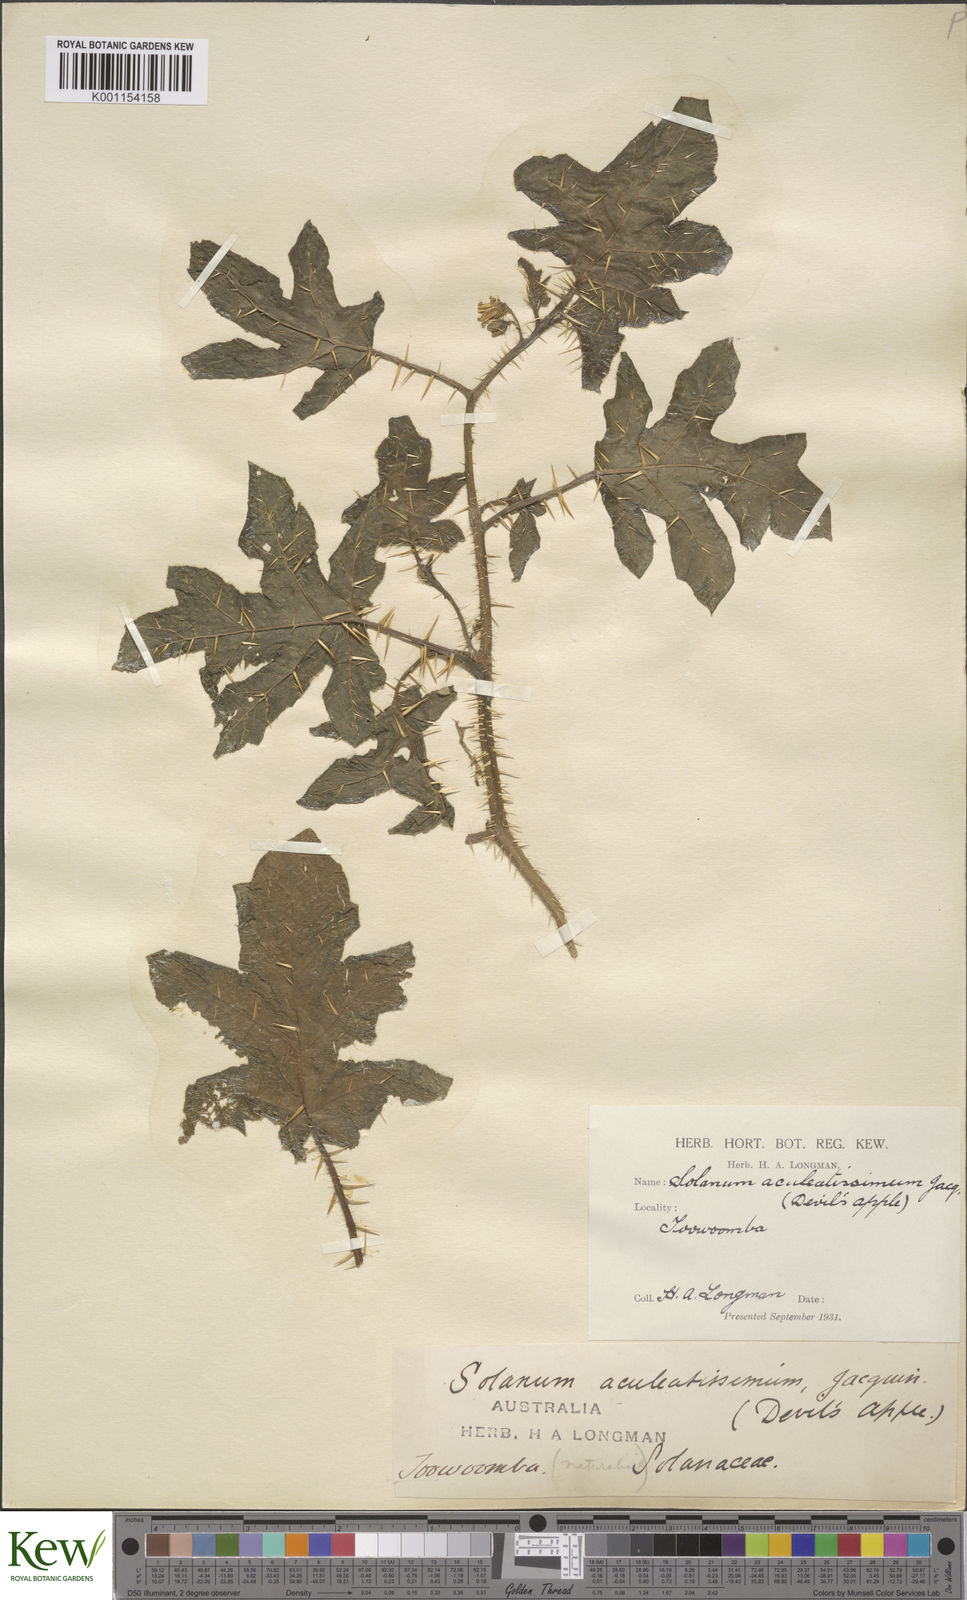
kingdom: Plantae
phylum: Tracheophyta
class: Magnoliopsida
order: Solanales
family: Solanaceae
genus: Solanum
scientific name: Solanum capsicoides
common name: Cockroach berry
